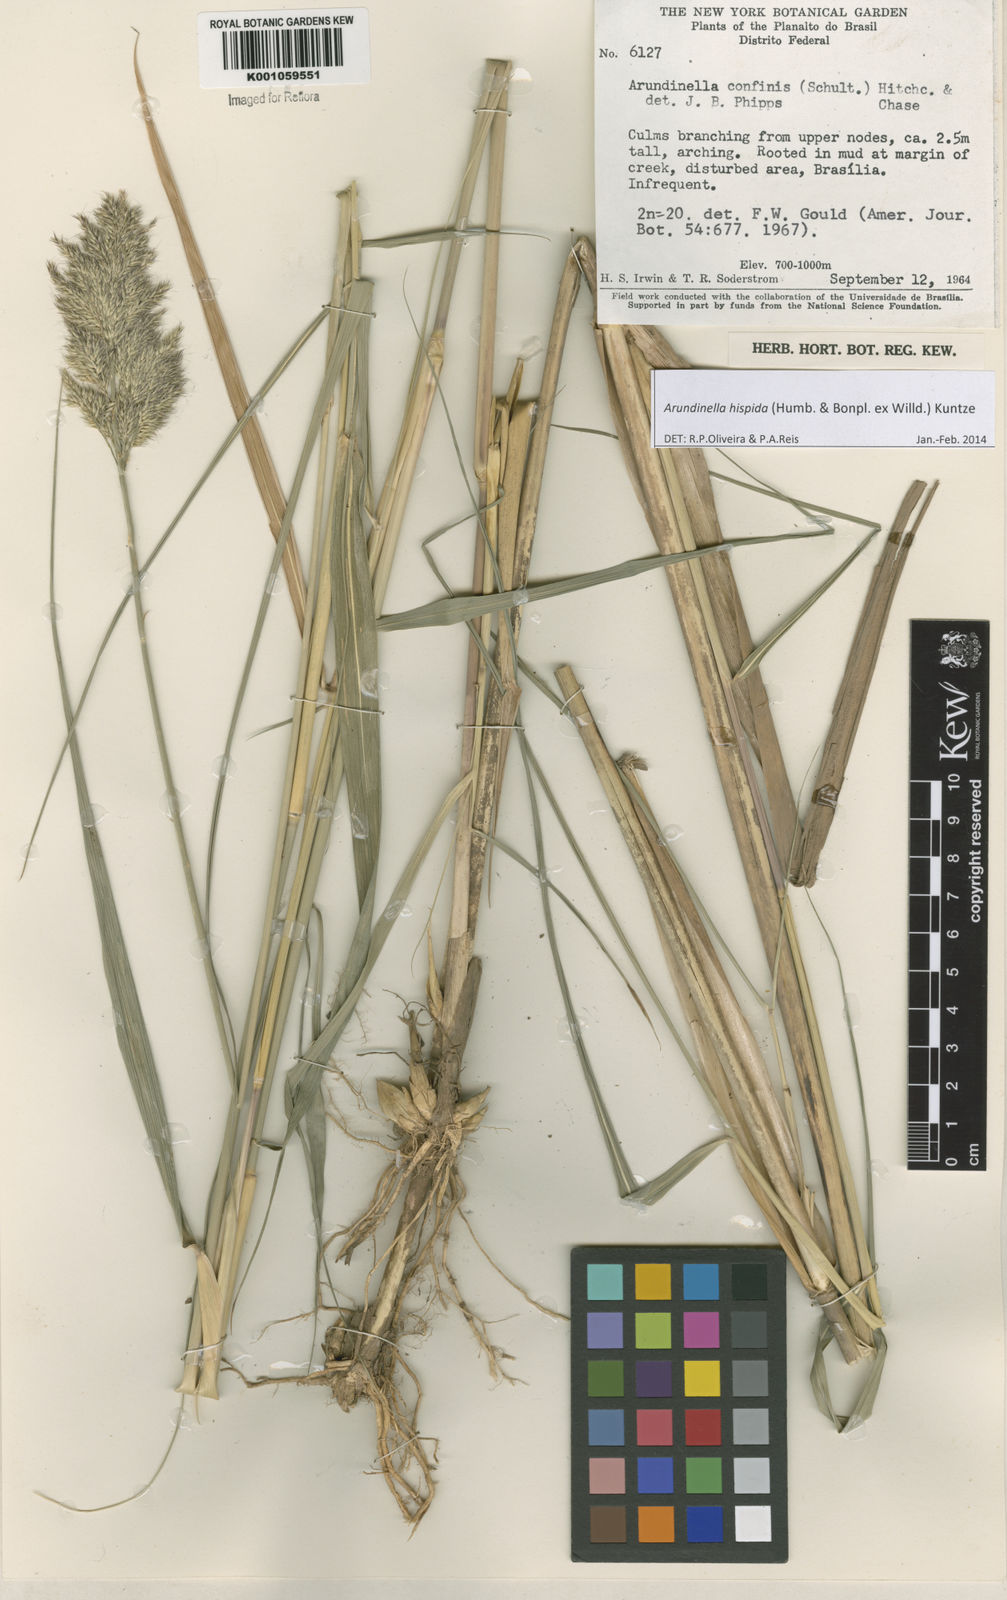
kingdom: Plantae
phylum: Tracheophyta
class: Liliopsida
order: Poales
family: Poaceae
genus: Arundinella
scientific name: Arundinella hispida
